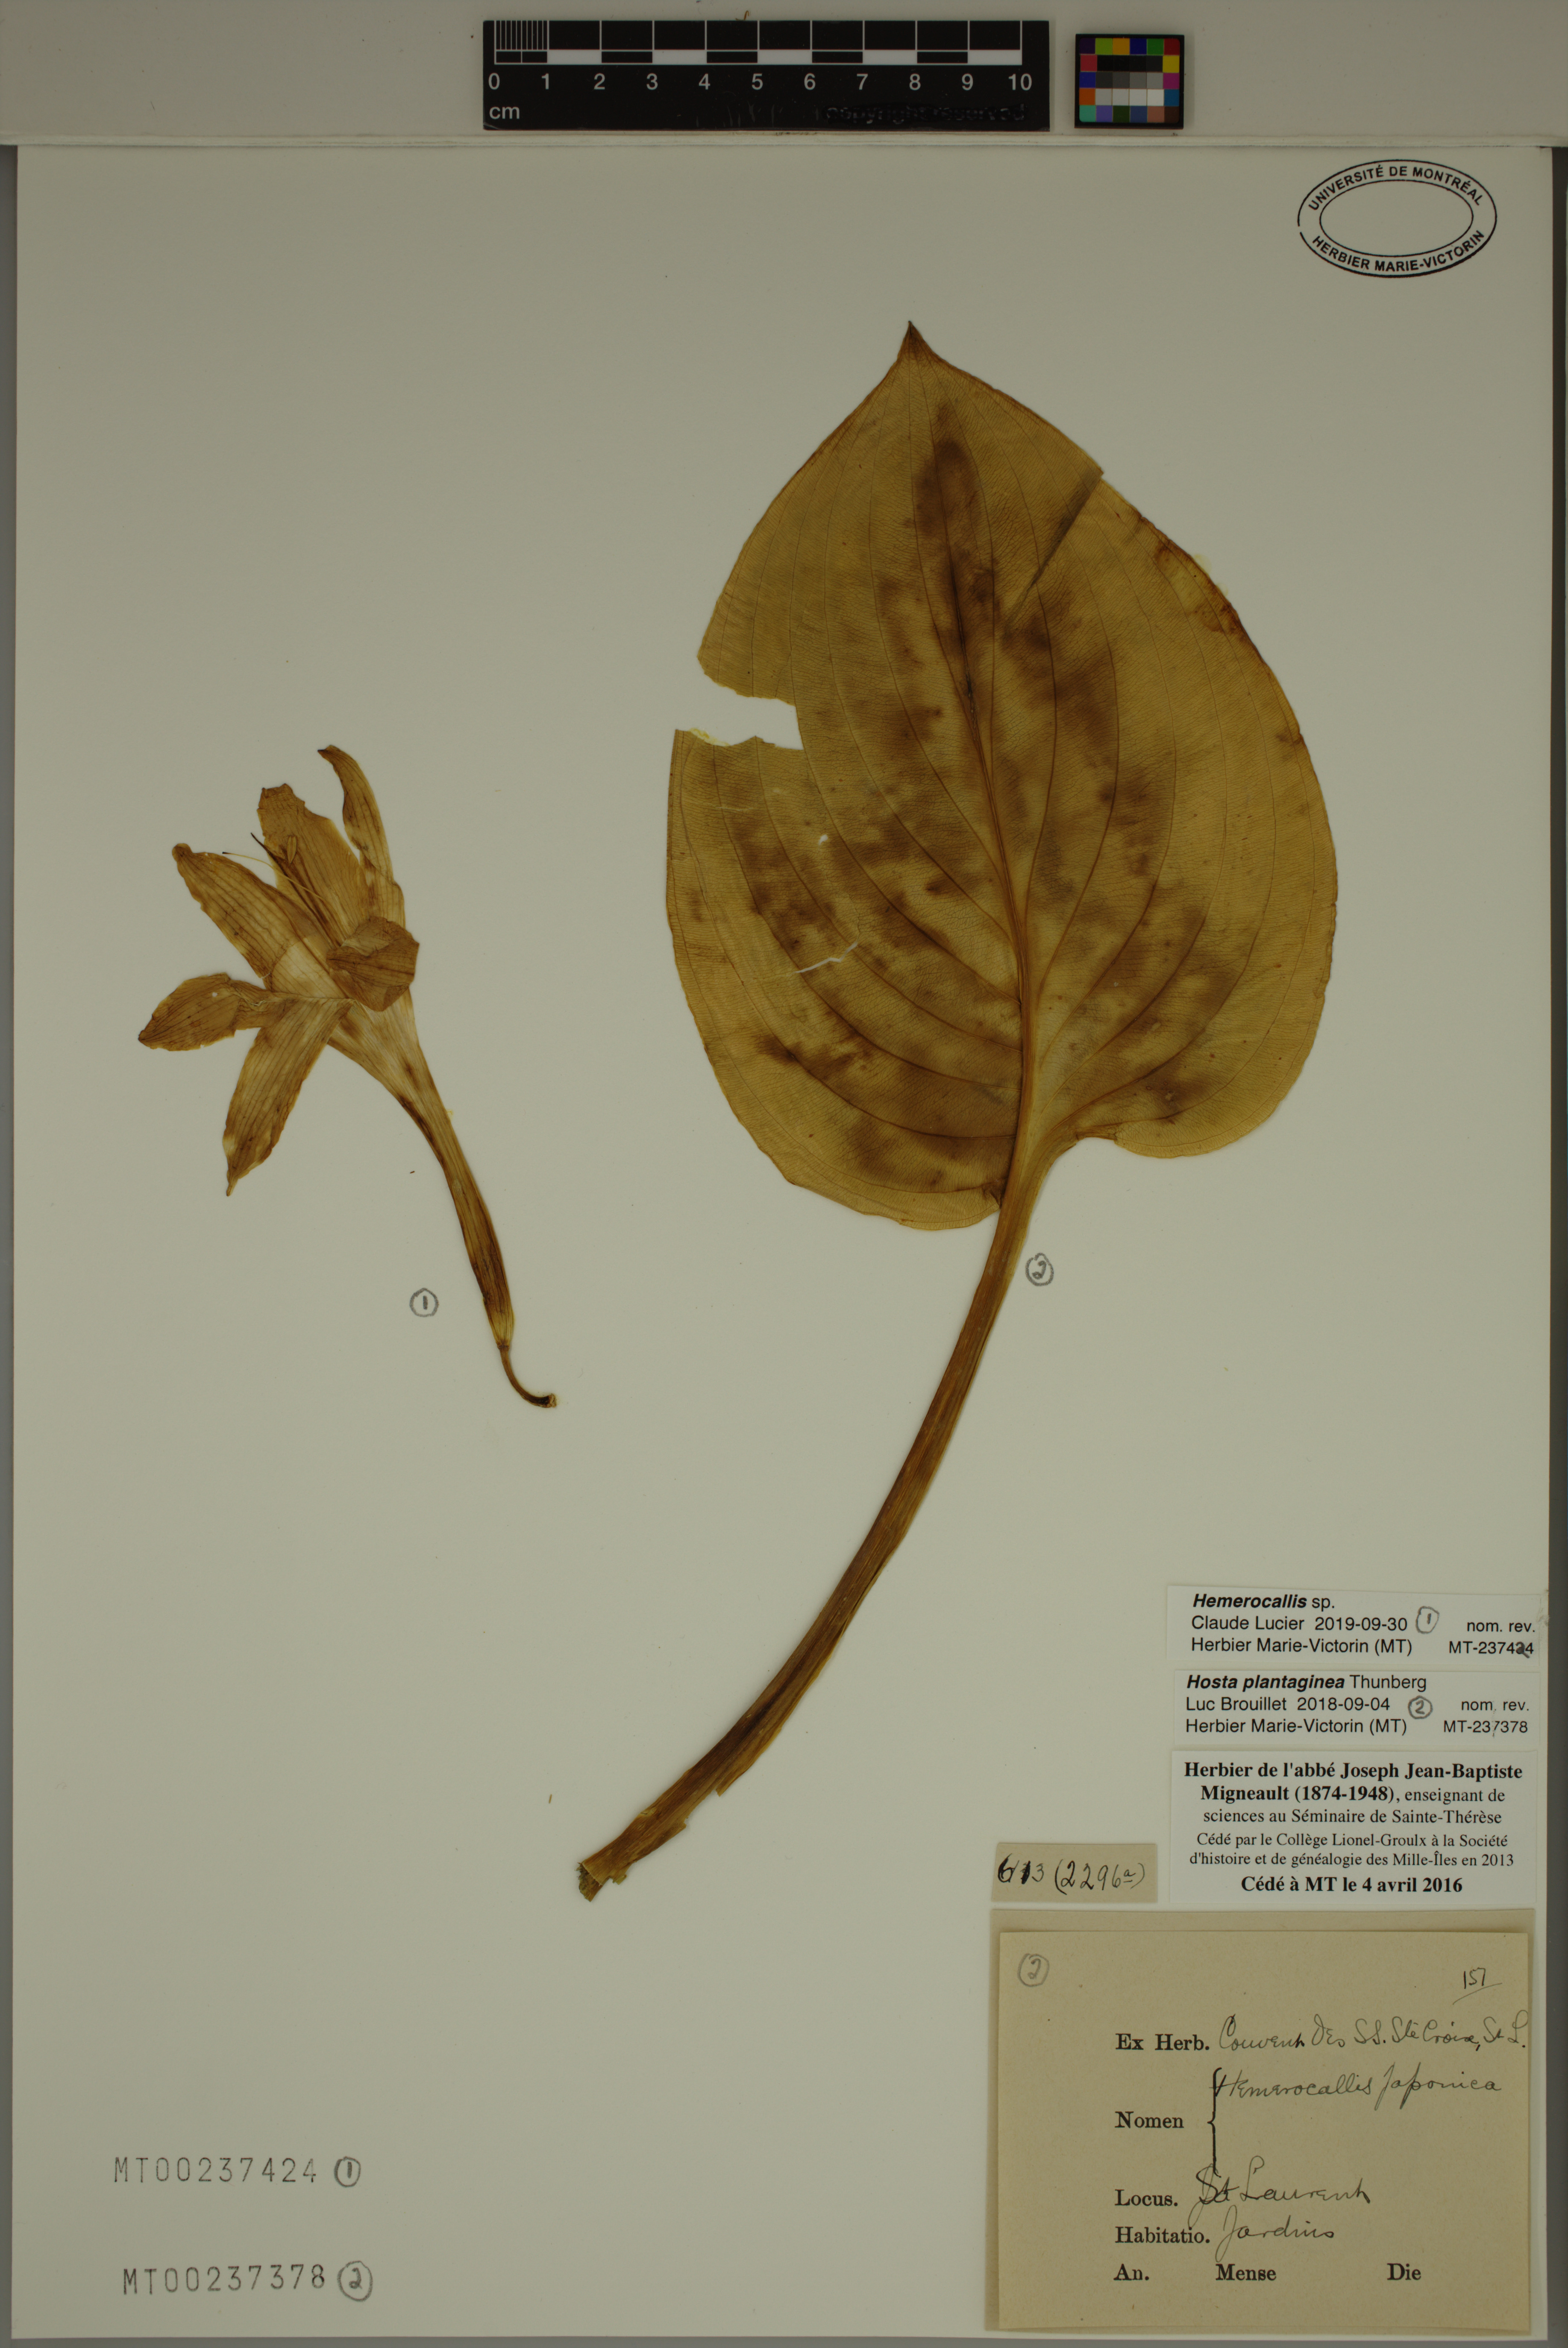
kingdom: Plantae
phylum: Tracheophyta
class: Liliopsida
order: Asparagales
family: Asparagaceae
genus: Hosta
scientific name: Hosta lancifolia
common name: Narrowleaf plantain lily
